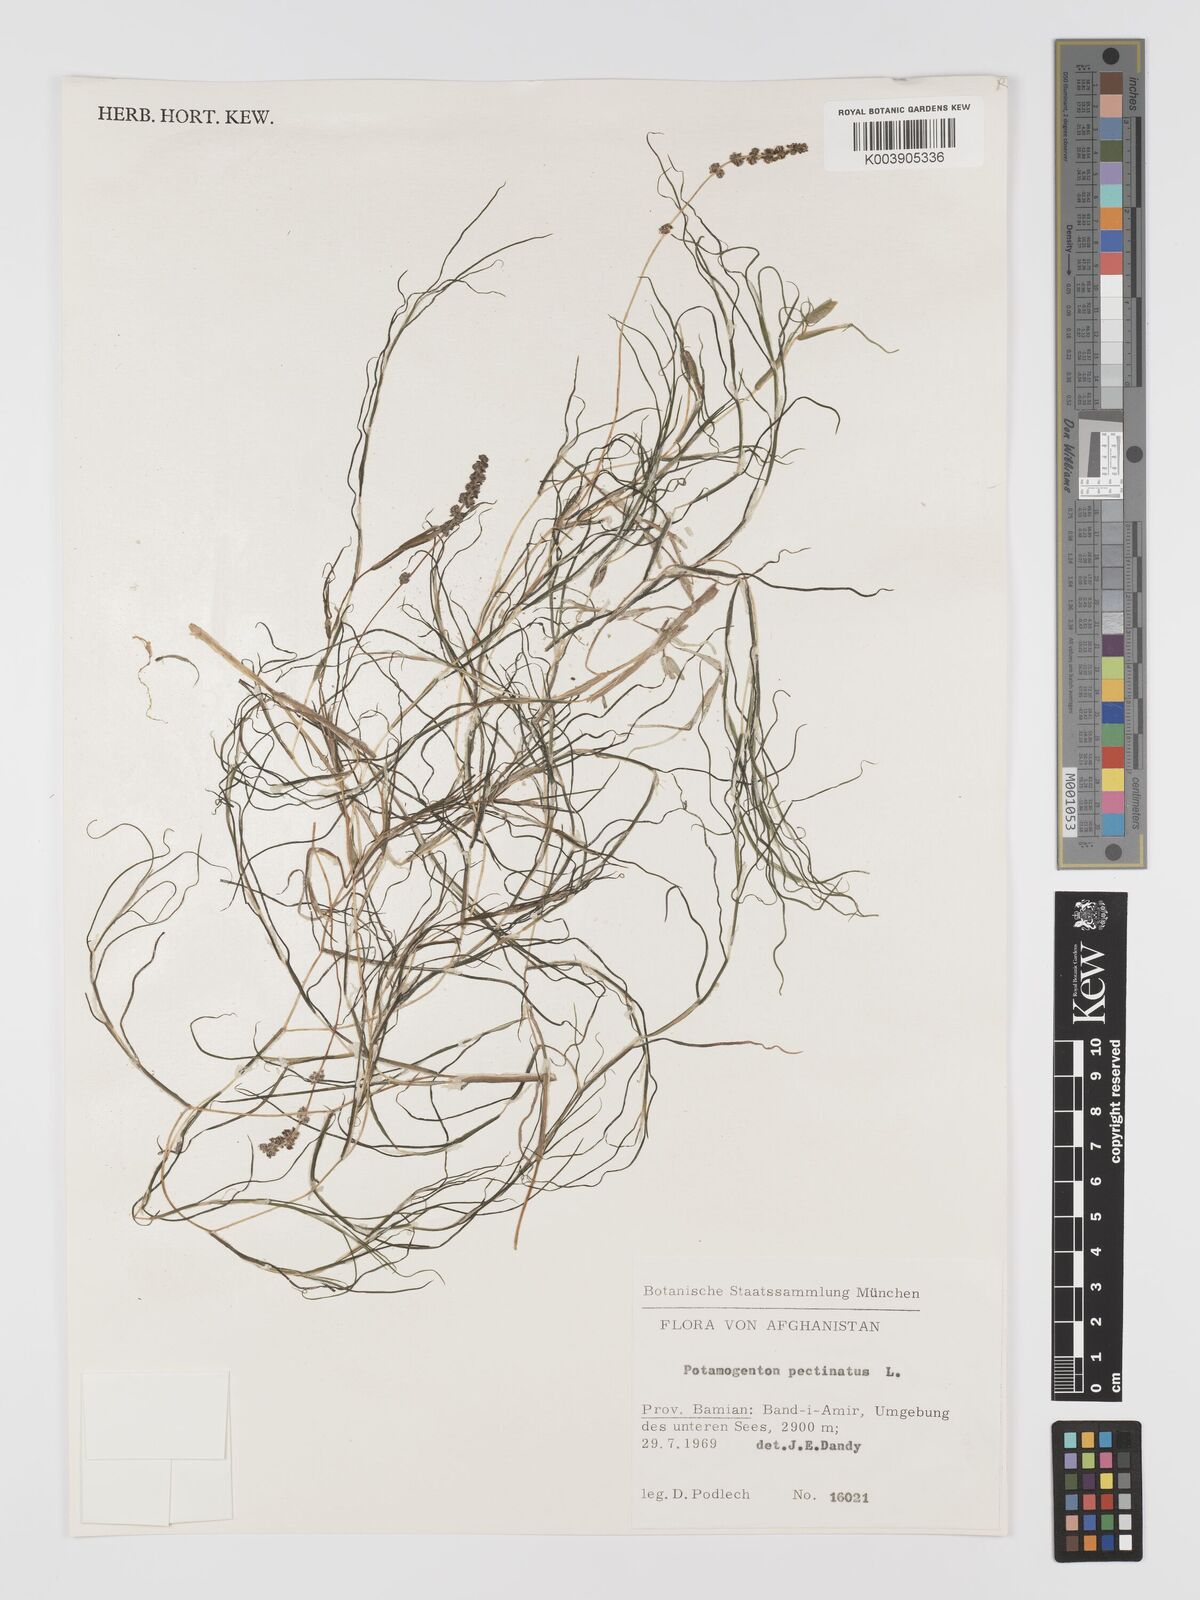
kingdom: Plantae
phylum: Tracheophyta
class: Liliopsida
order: Alismatales
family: Potamogetonaceae
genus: Stuckenia
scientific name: Stuckenia pectinata
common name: Sago pondweed
